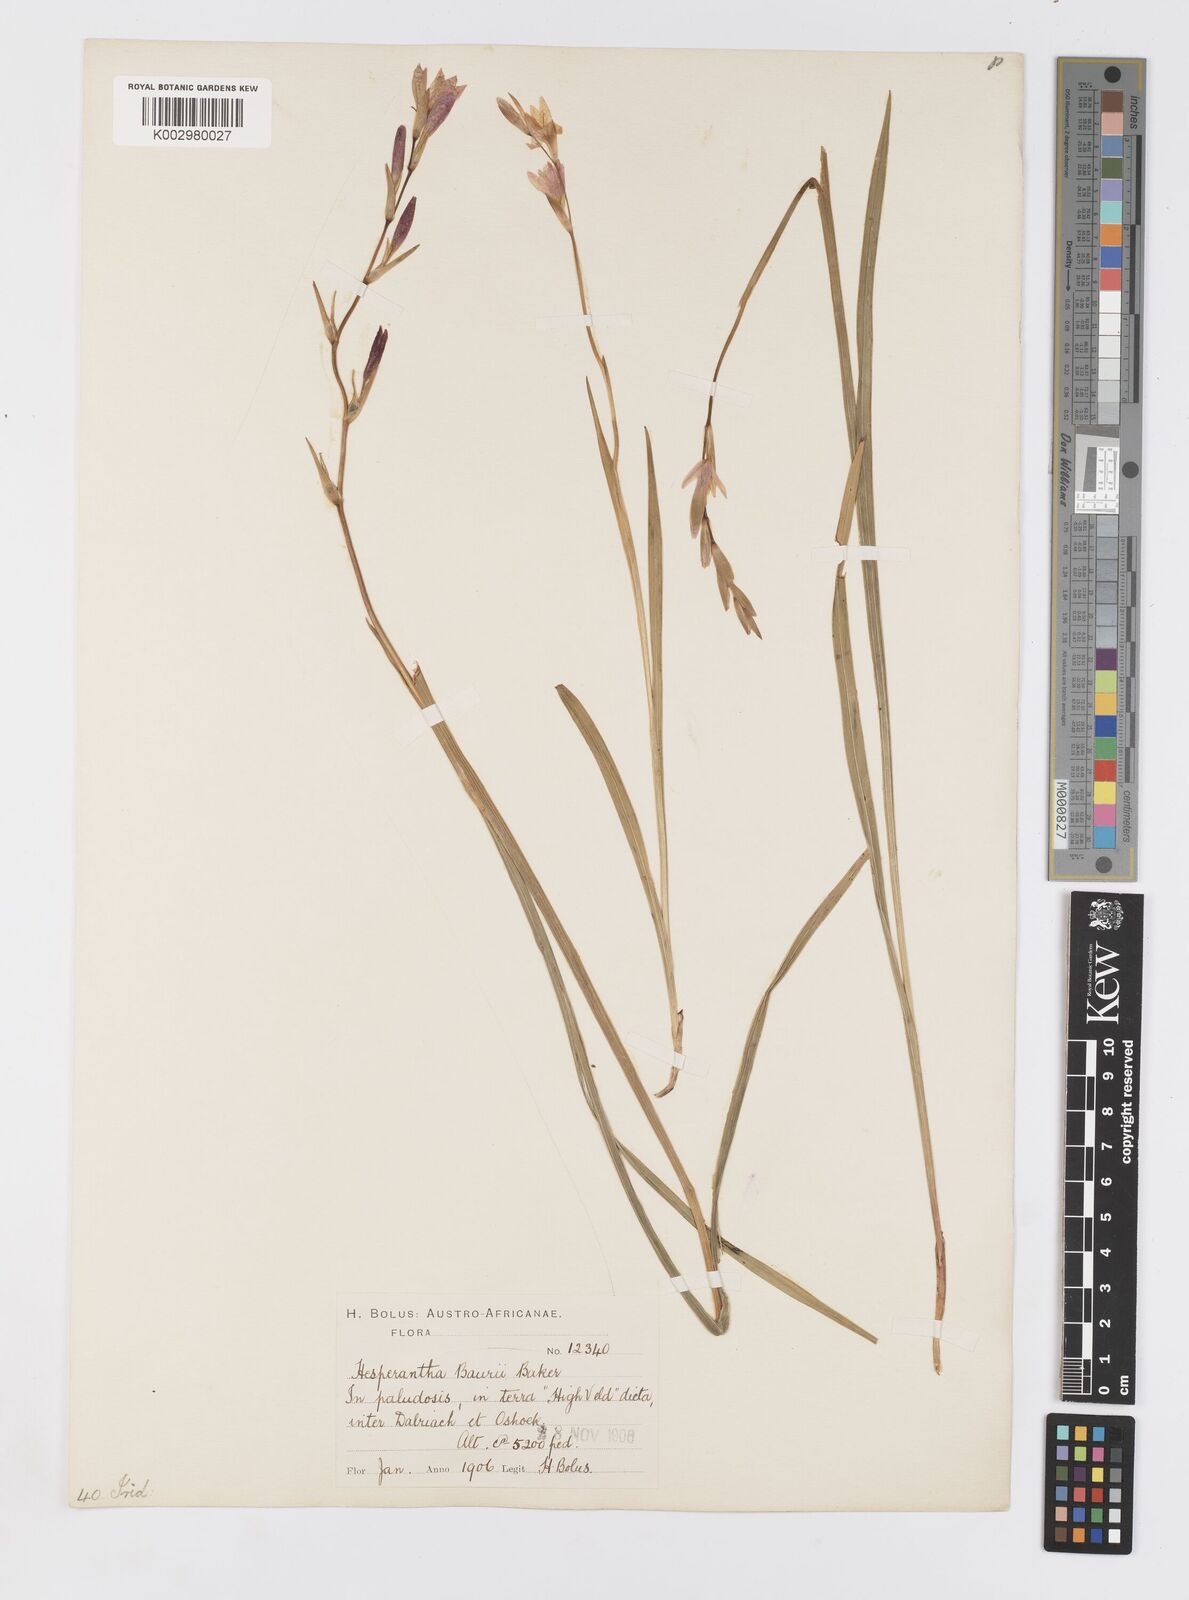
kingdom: Plantae
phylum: Tracheophyta
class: Liliopsida
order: Asparagales
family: Iridaceae
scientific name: Iridaceae
